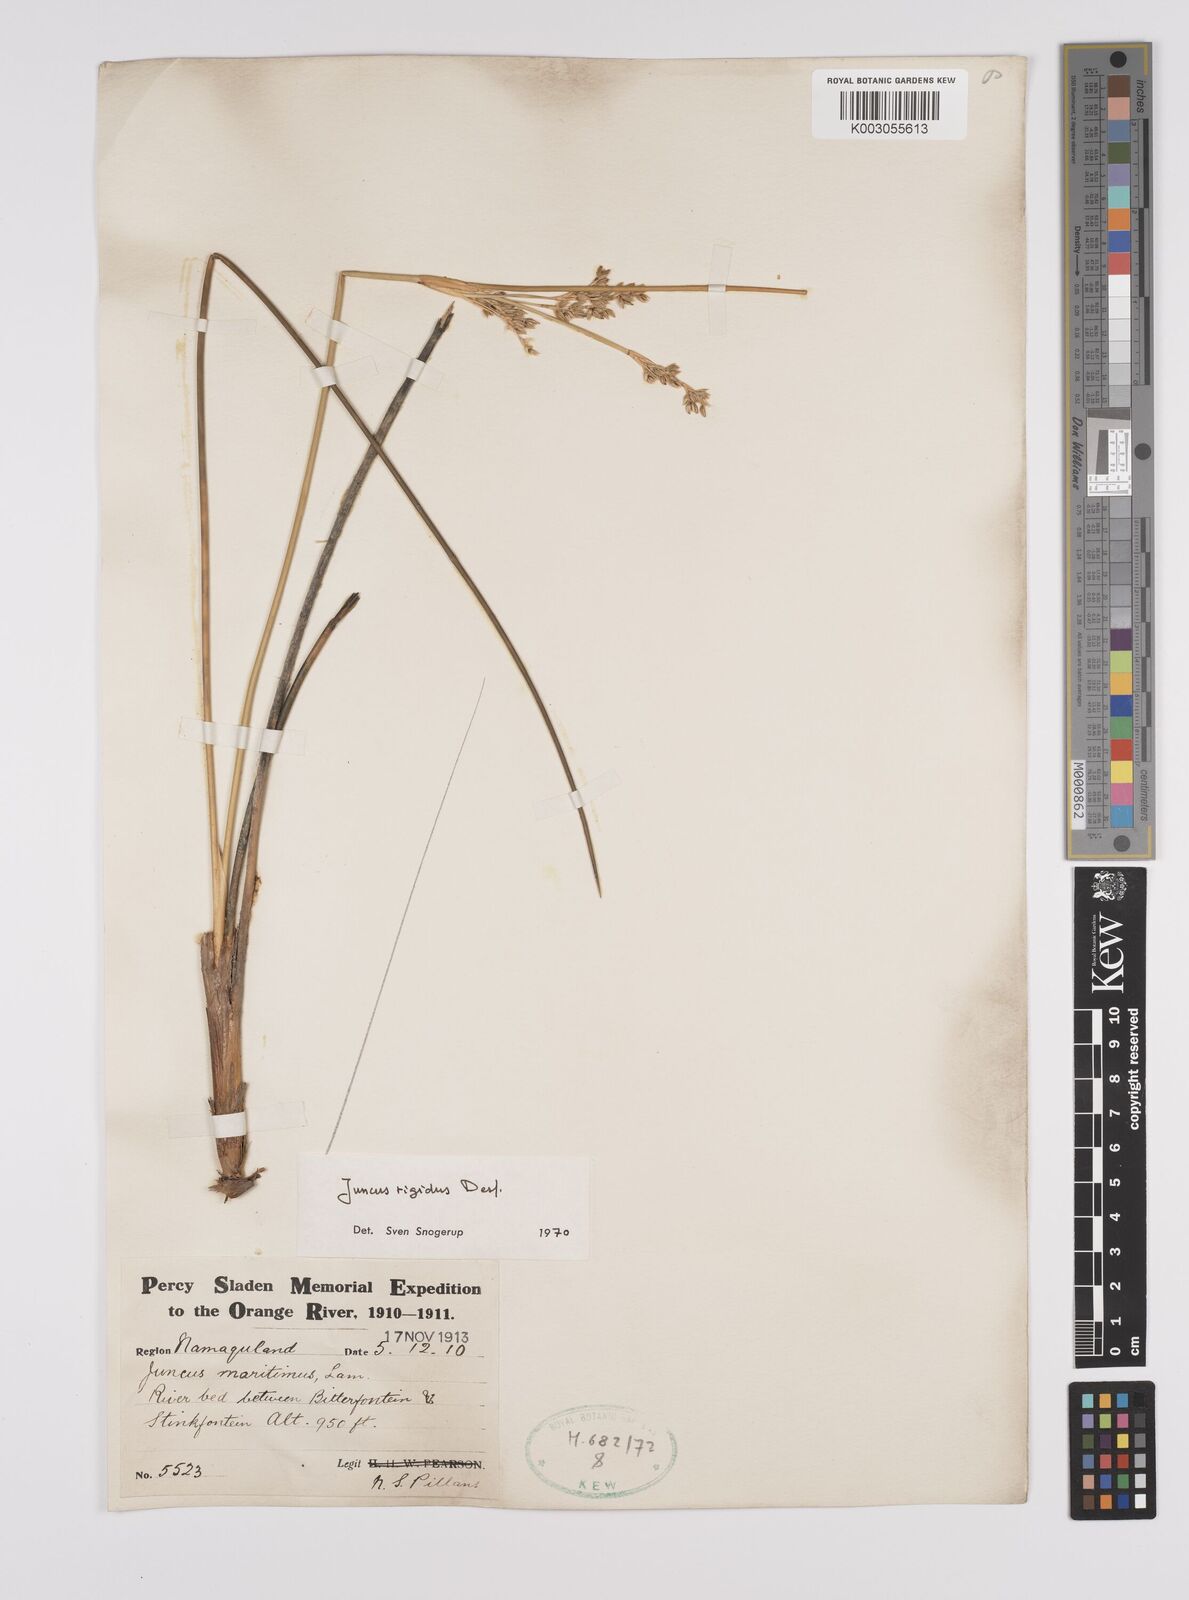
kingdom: Plantae
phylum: Tracheophyta
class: Liliopsida
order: Poales
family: Juncaceae
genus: Juncus
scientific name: Juncus rigidus
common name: Hard sea rush
